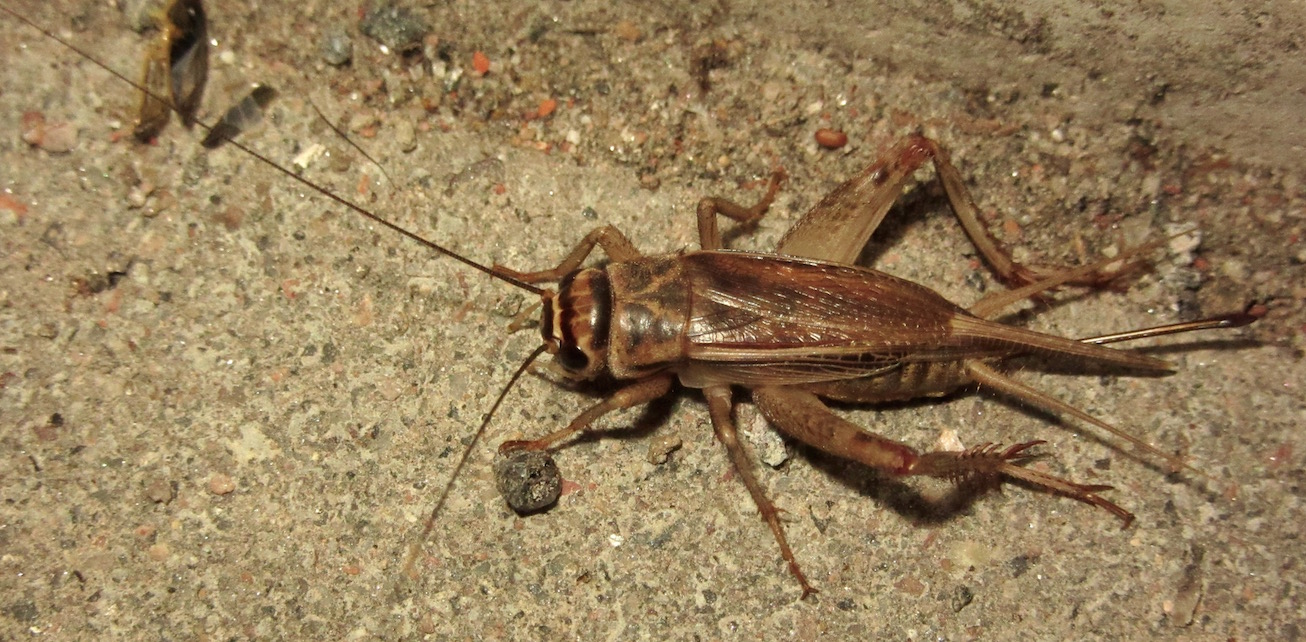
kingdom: Animalia
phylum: Arthropoda
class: Insecta
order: Orthoptera
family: Gryllidae
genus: Acheta
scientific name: Acheta domesticus
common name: House cricket
